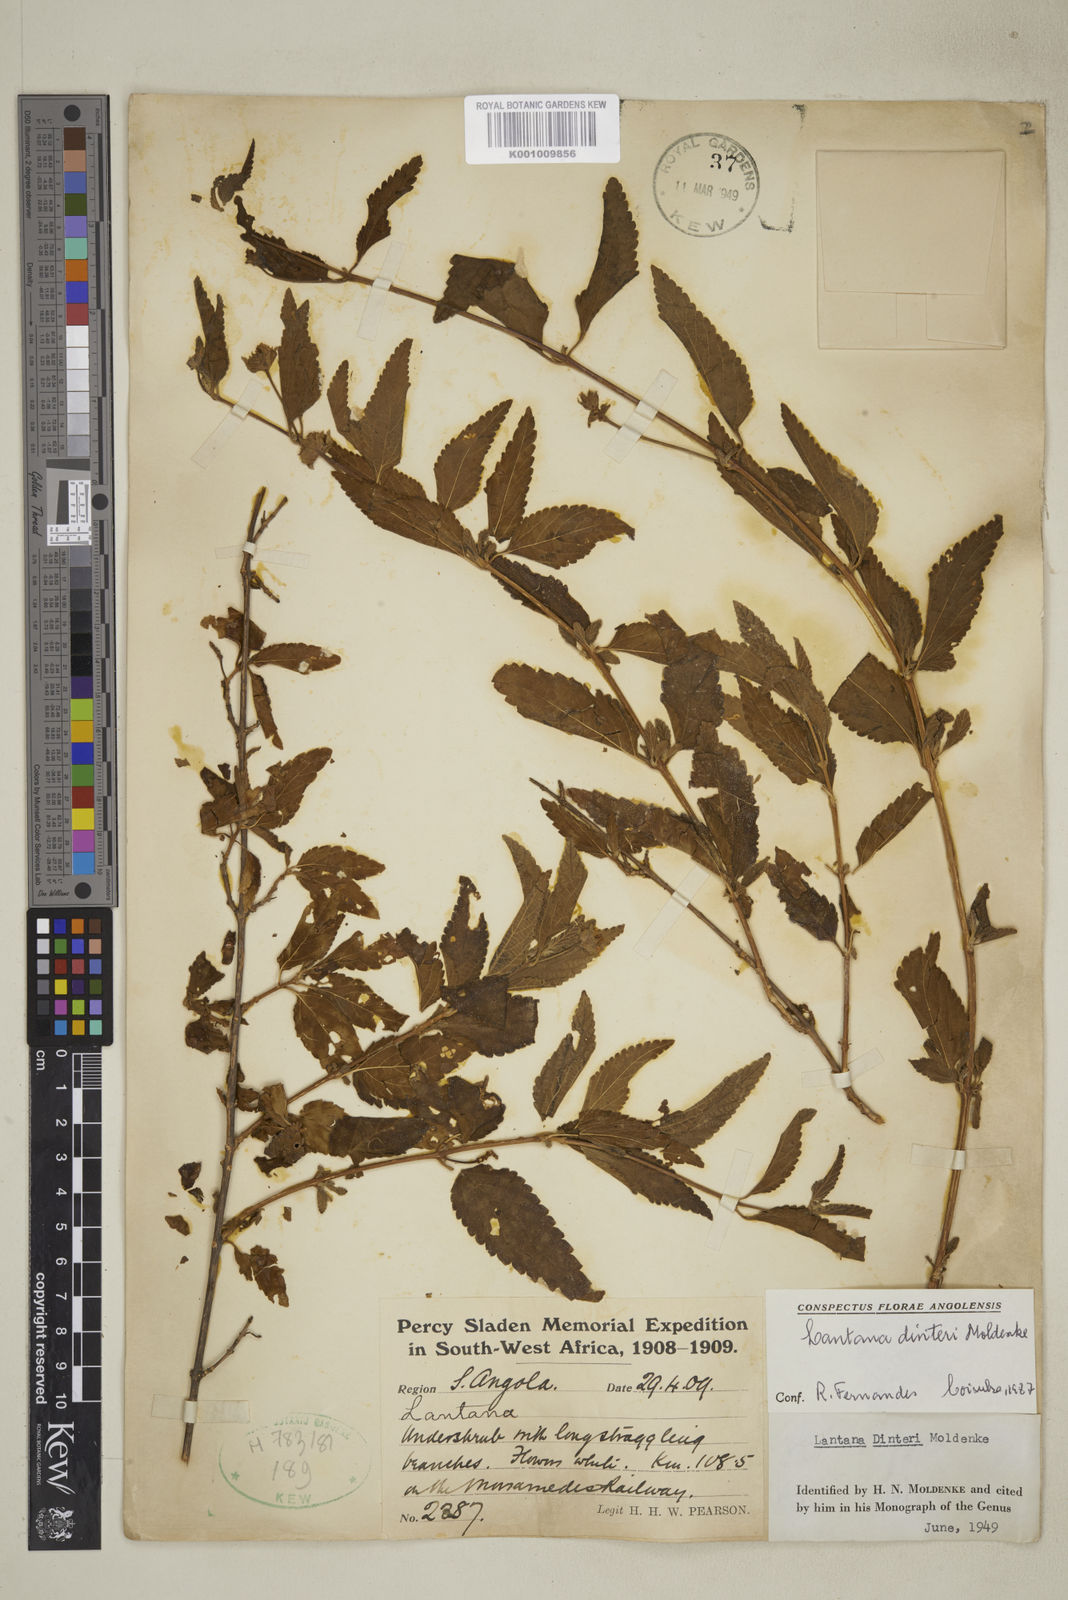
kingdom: Plantae
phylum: Tracheophyta
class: Magnoliopsida
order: Lamiales
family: Verbenaceae
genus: Lantana
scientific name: Lantana dinteri
